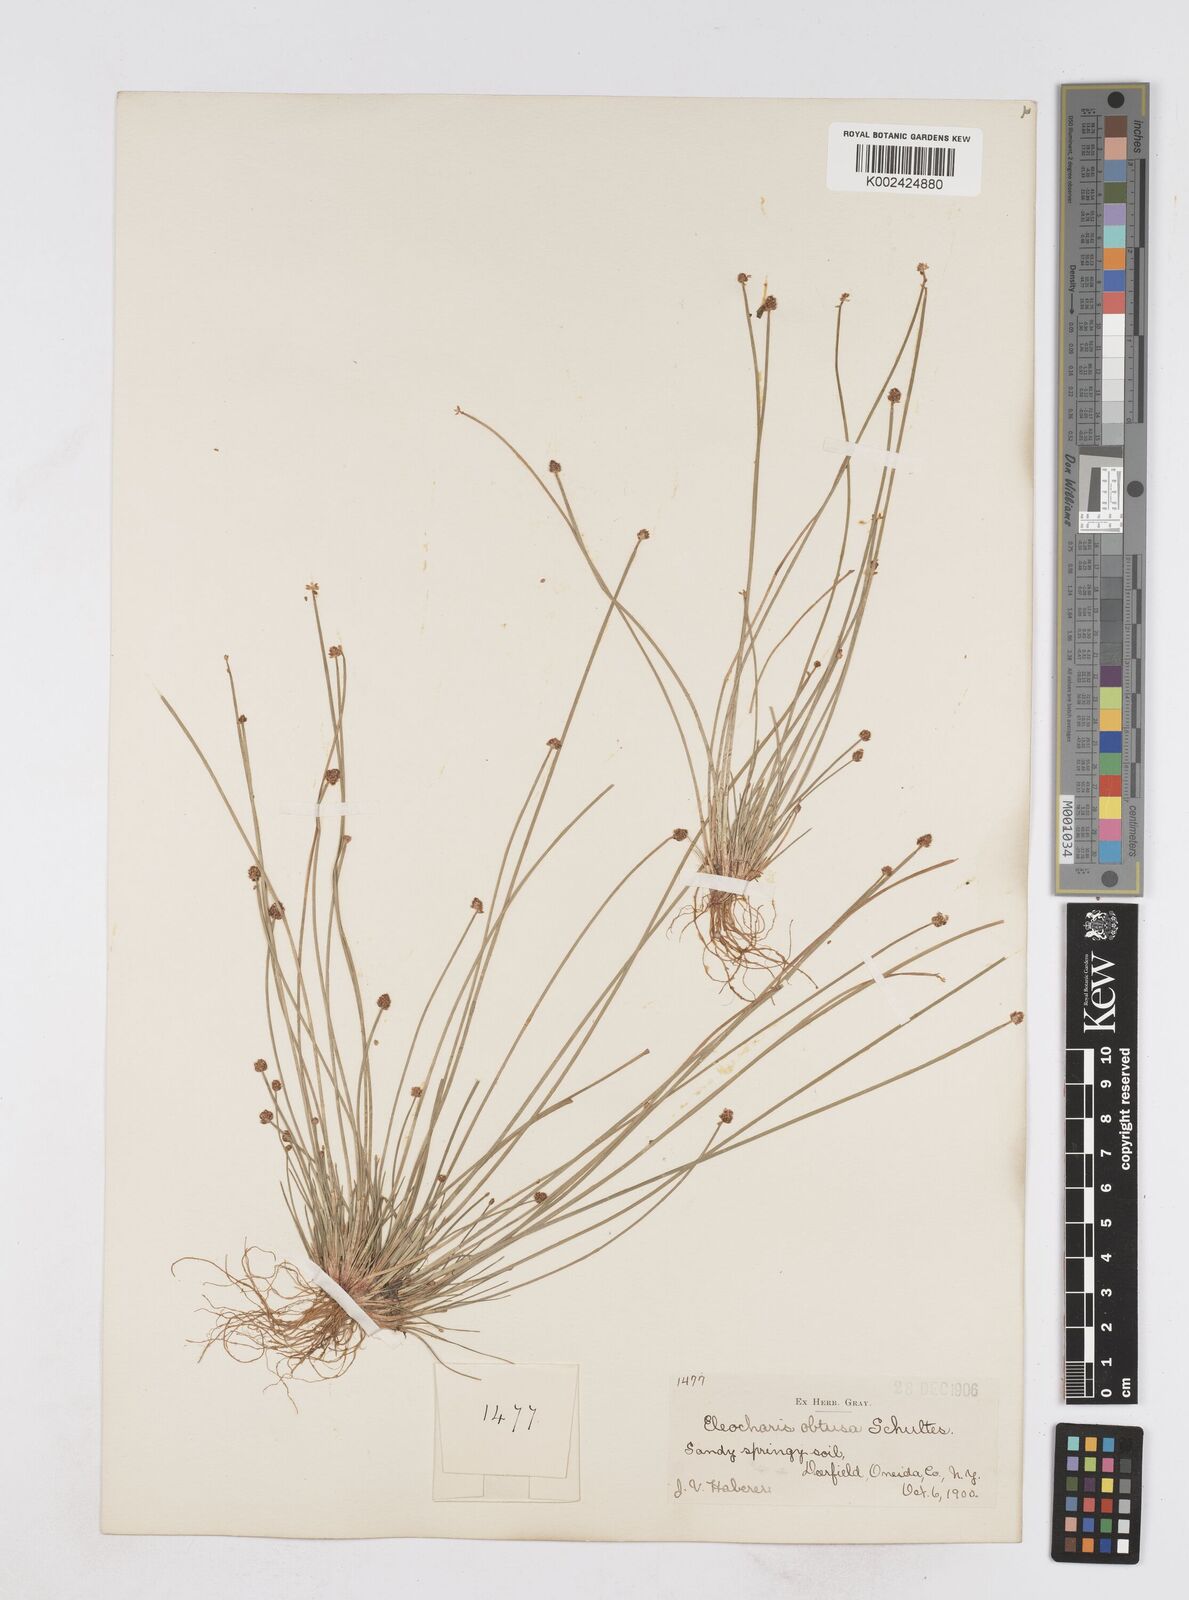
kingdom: Plantae
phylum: Tracheophyta
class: Liliopsida
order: Poales
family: Cyperaceae
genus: Eleocharis
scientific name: Eleocharis obtusa
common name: Blunt spikerush
